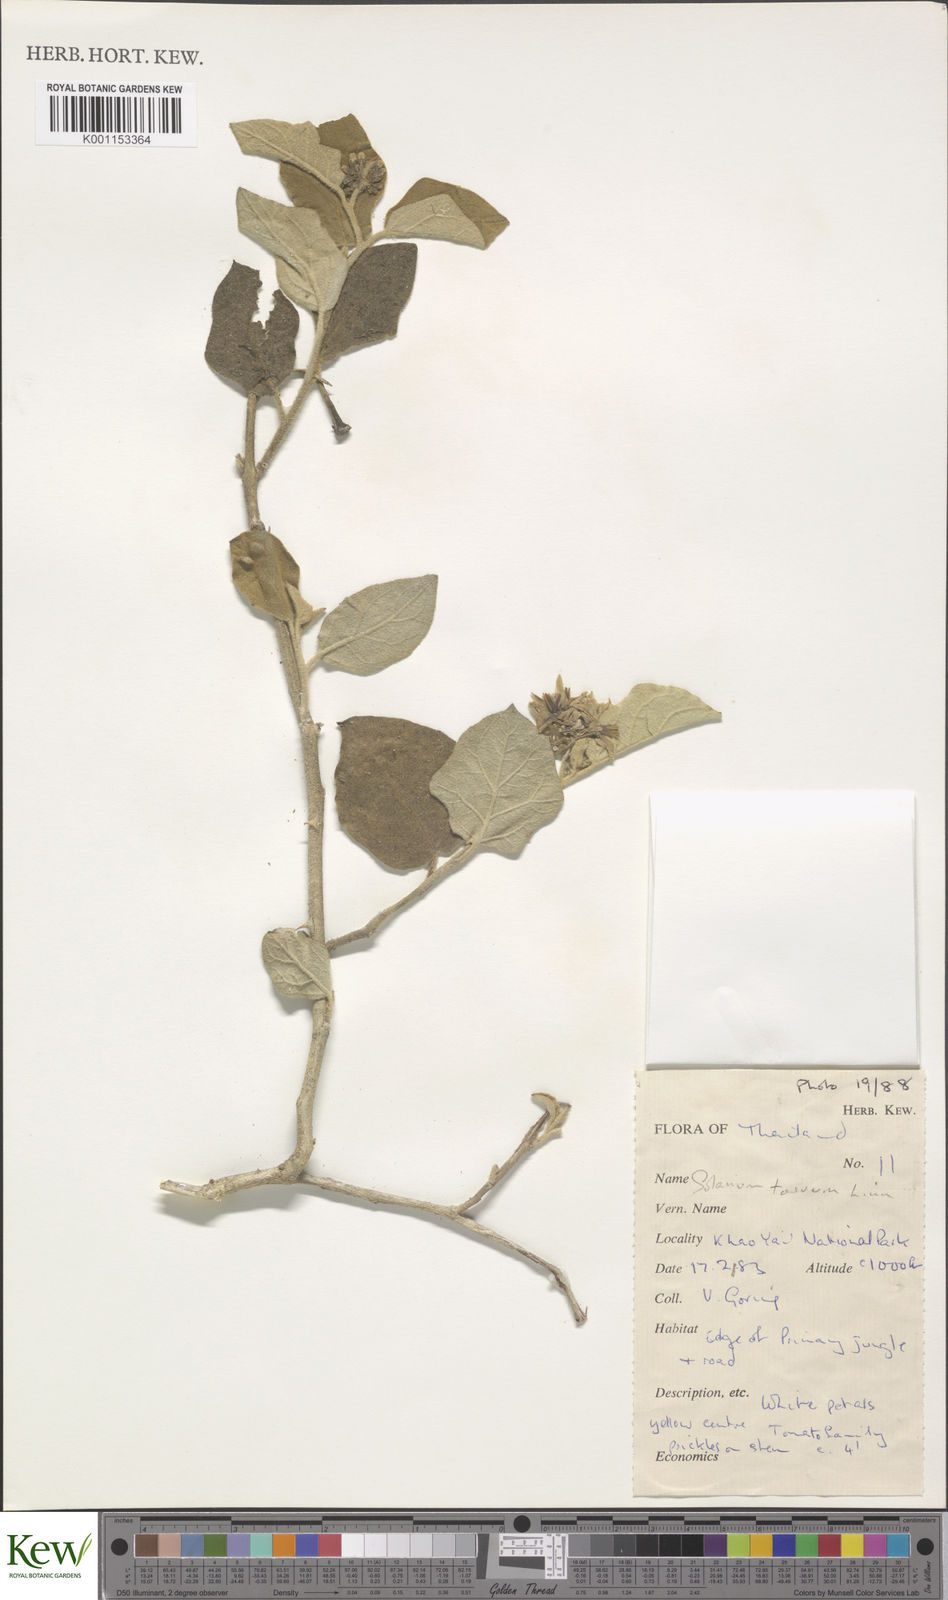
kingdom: Plantae
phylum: Tracheophyta
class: Magnoliopsida
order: Solanales
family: Solanaceae
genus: Solanum
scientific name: Solanum torvum
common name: Turkey berry
